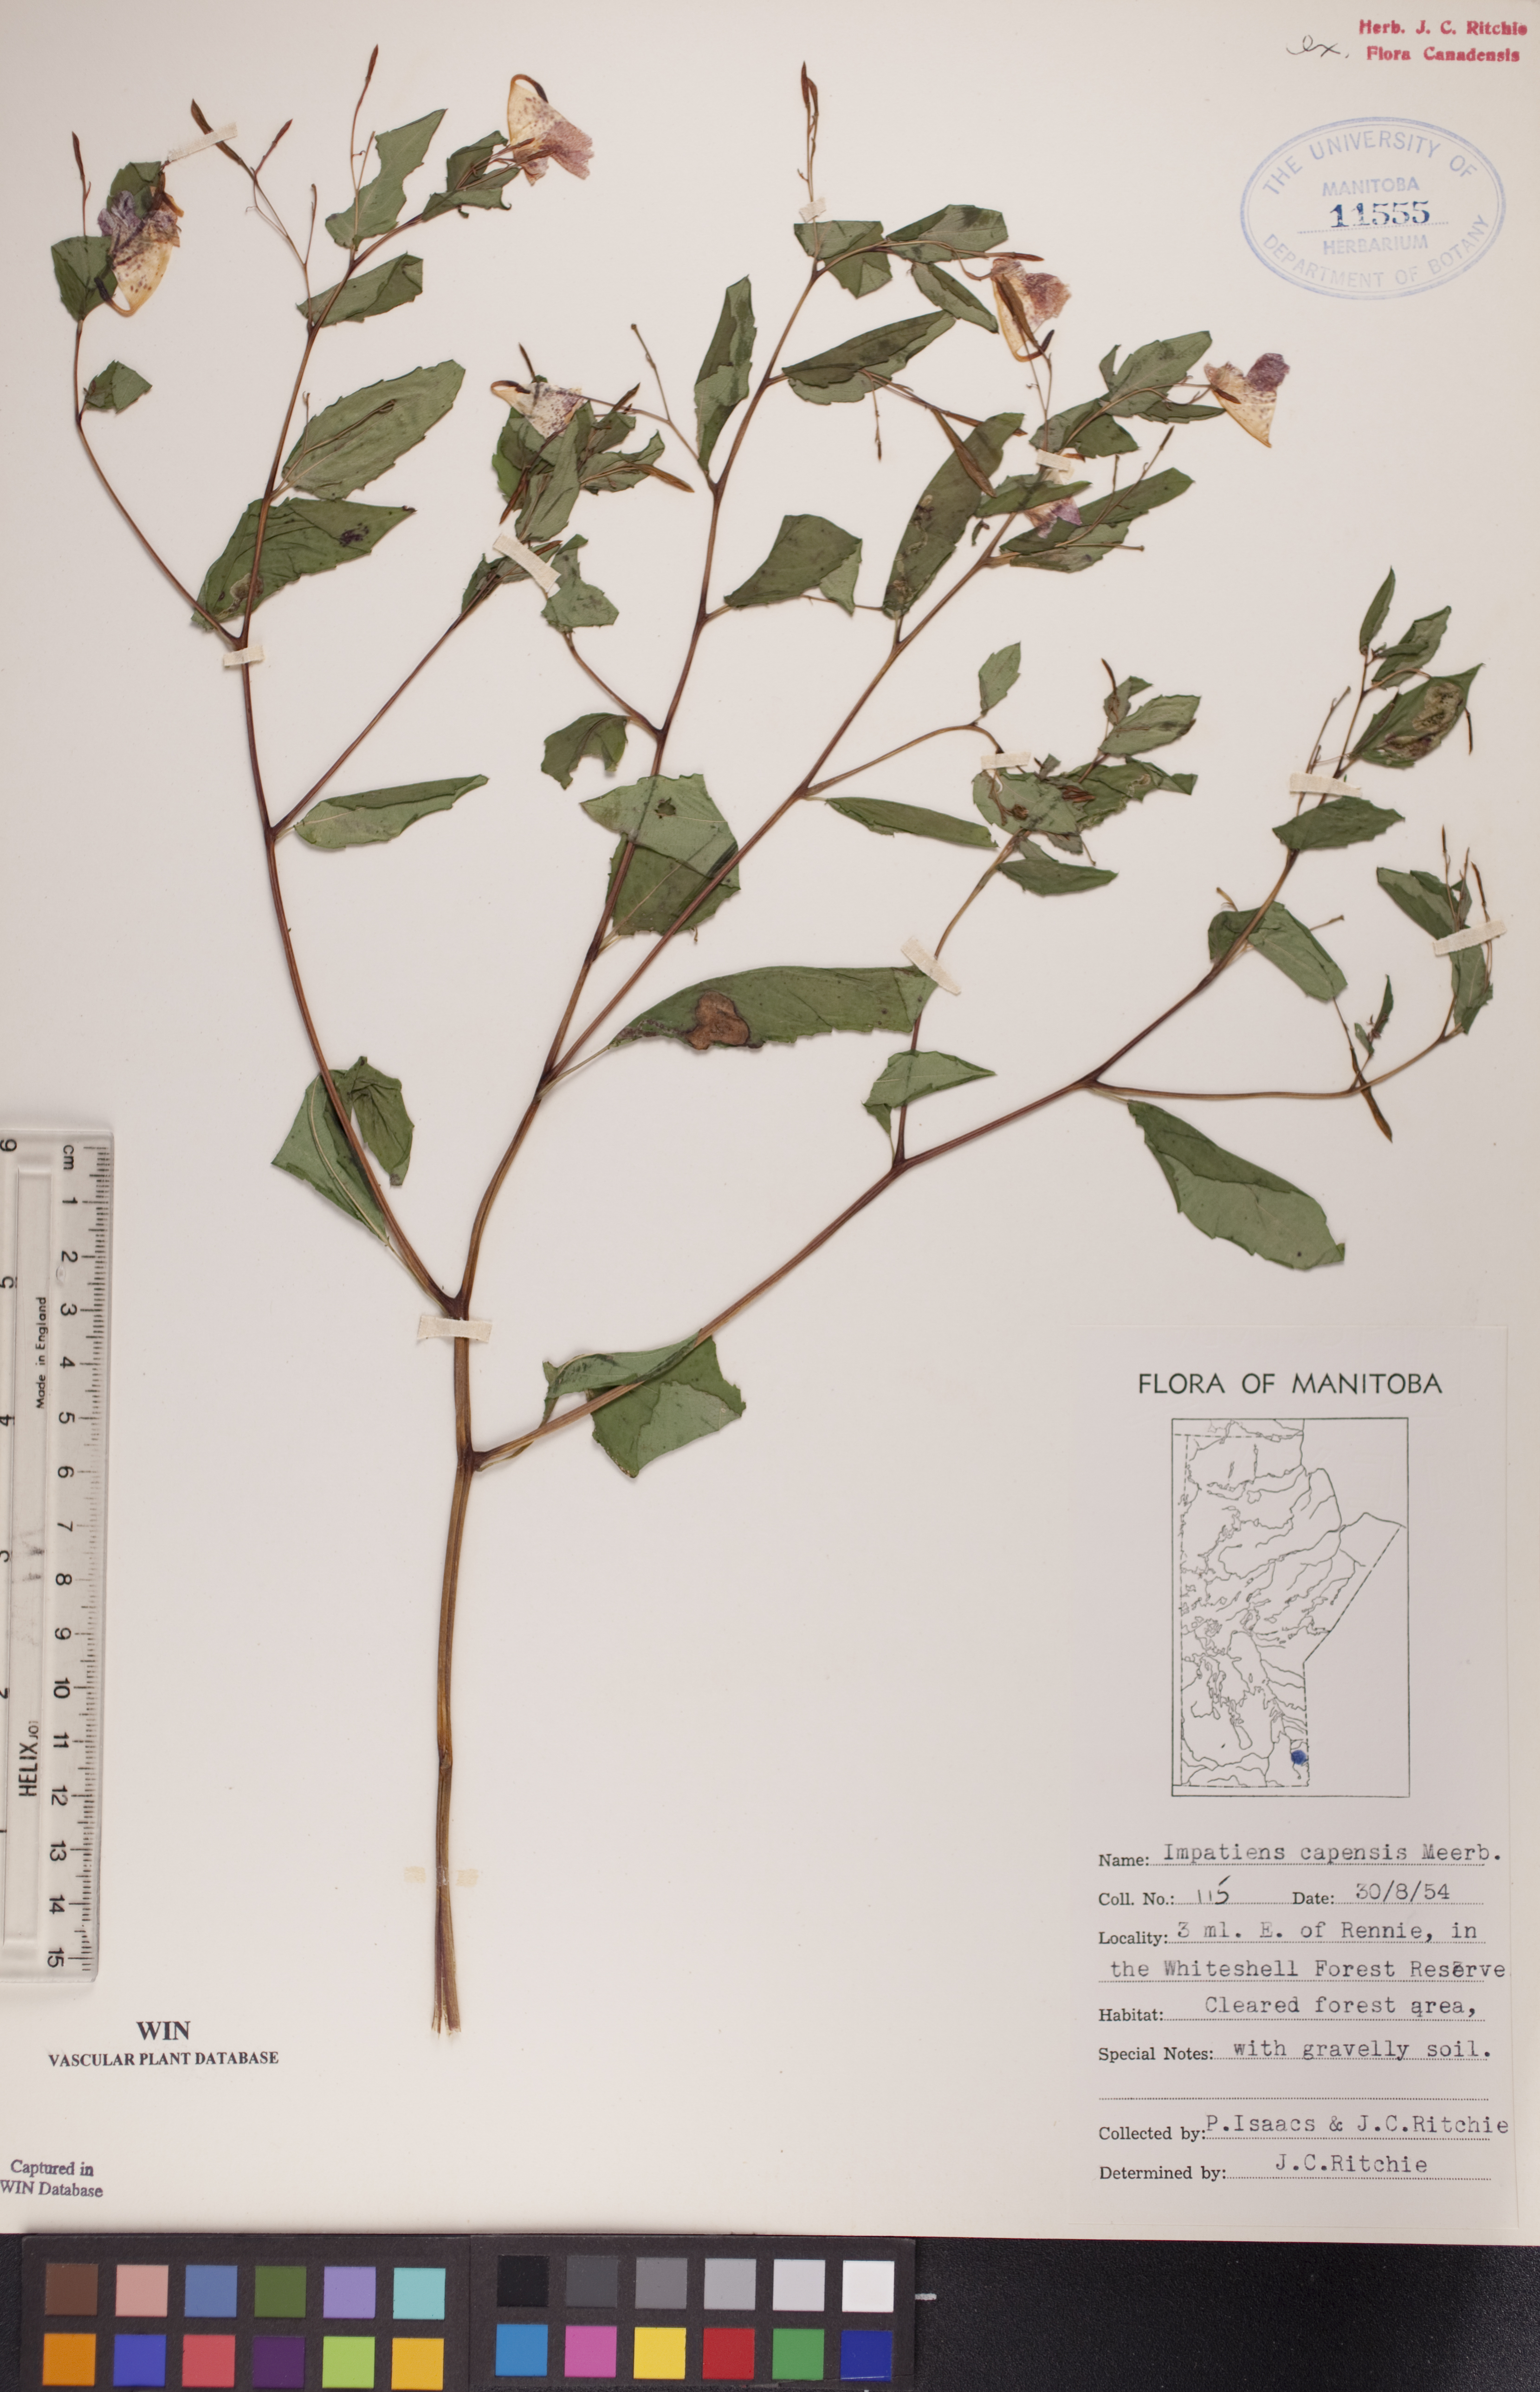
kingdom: Plantae
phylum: Tracheophyta
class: Magnoliopsida
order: Ericales
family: Balsaminaceae
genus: Impatiens
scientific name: Impatiens capensis
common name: Orange balsam
